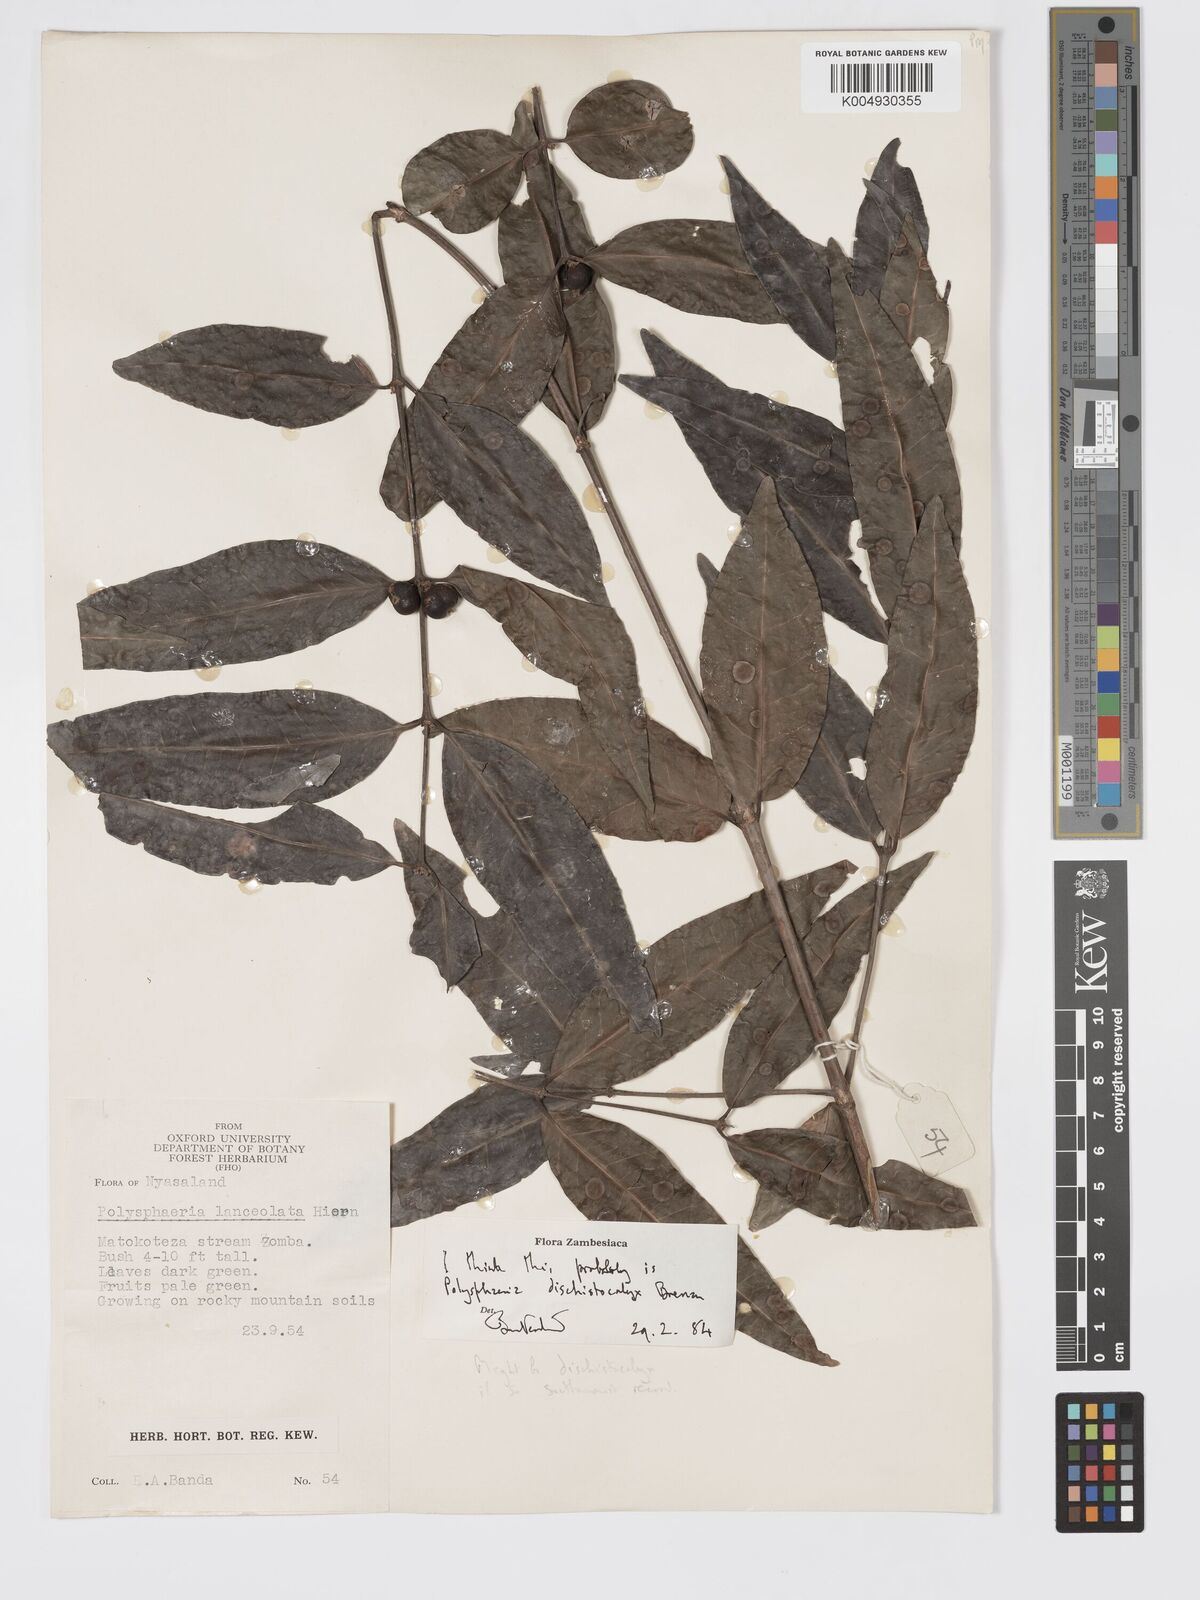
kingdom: Plantae
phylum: Tracheophyta
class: Magnoliopsida
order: Gentianales
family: Rubiaceae
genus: Polysphaeria
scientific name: Polysphaeria dischistocalyx
